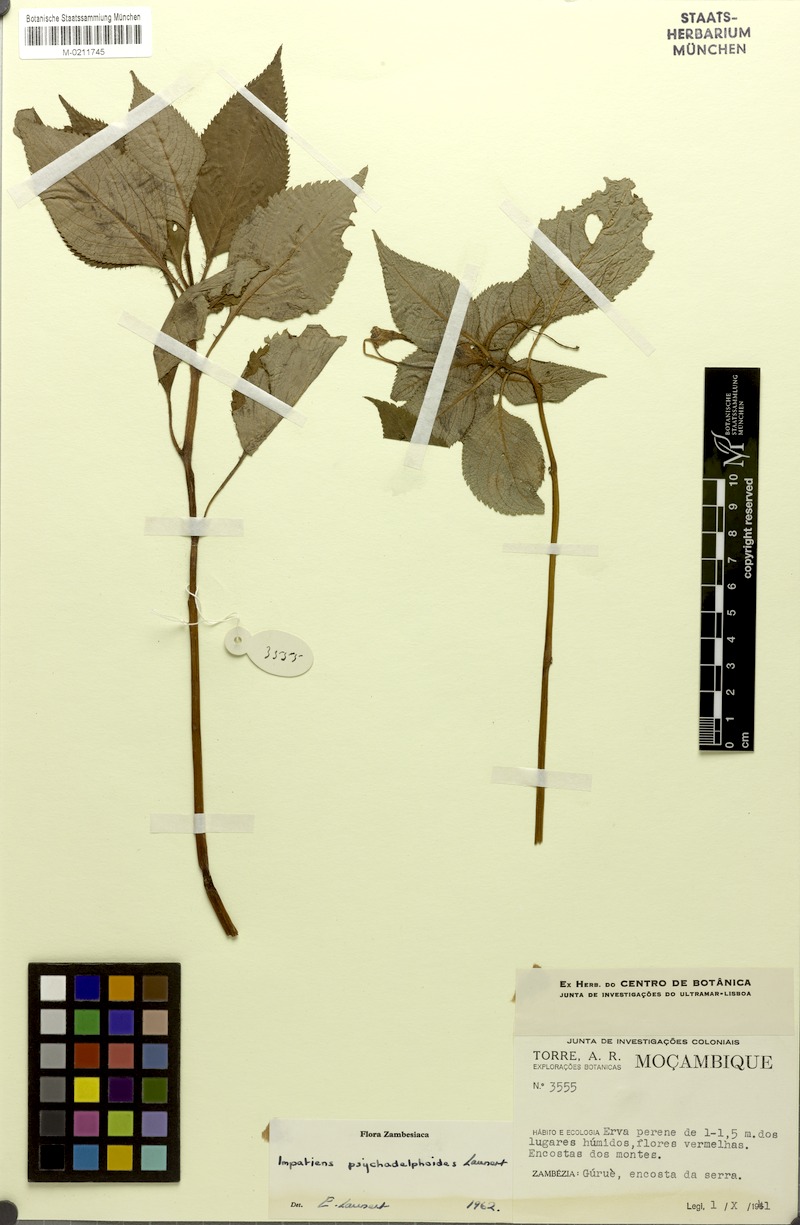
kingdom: Plantae
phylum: Tracheophyta
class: Magnoliopsida
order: Ericales
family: Balsaminaceae
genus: Impatiens
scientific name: Impatiens psychadelphoides
